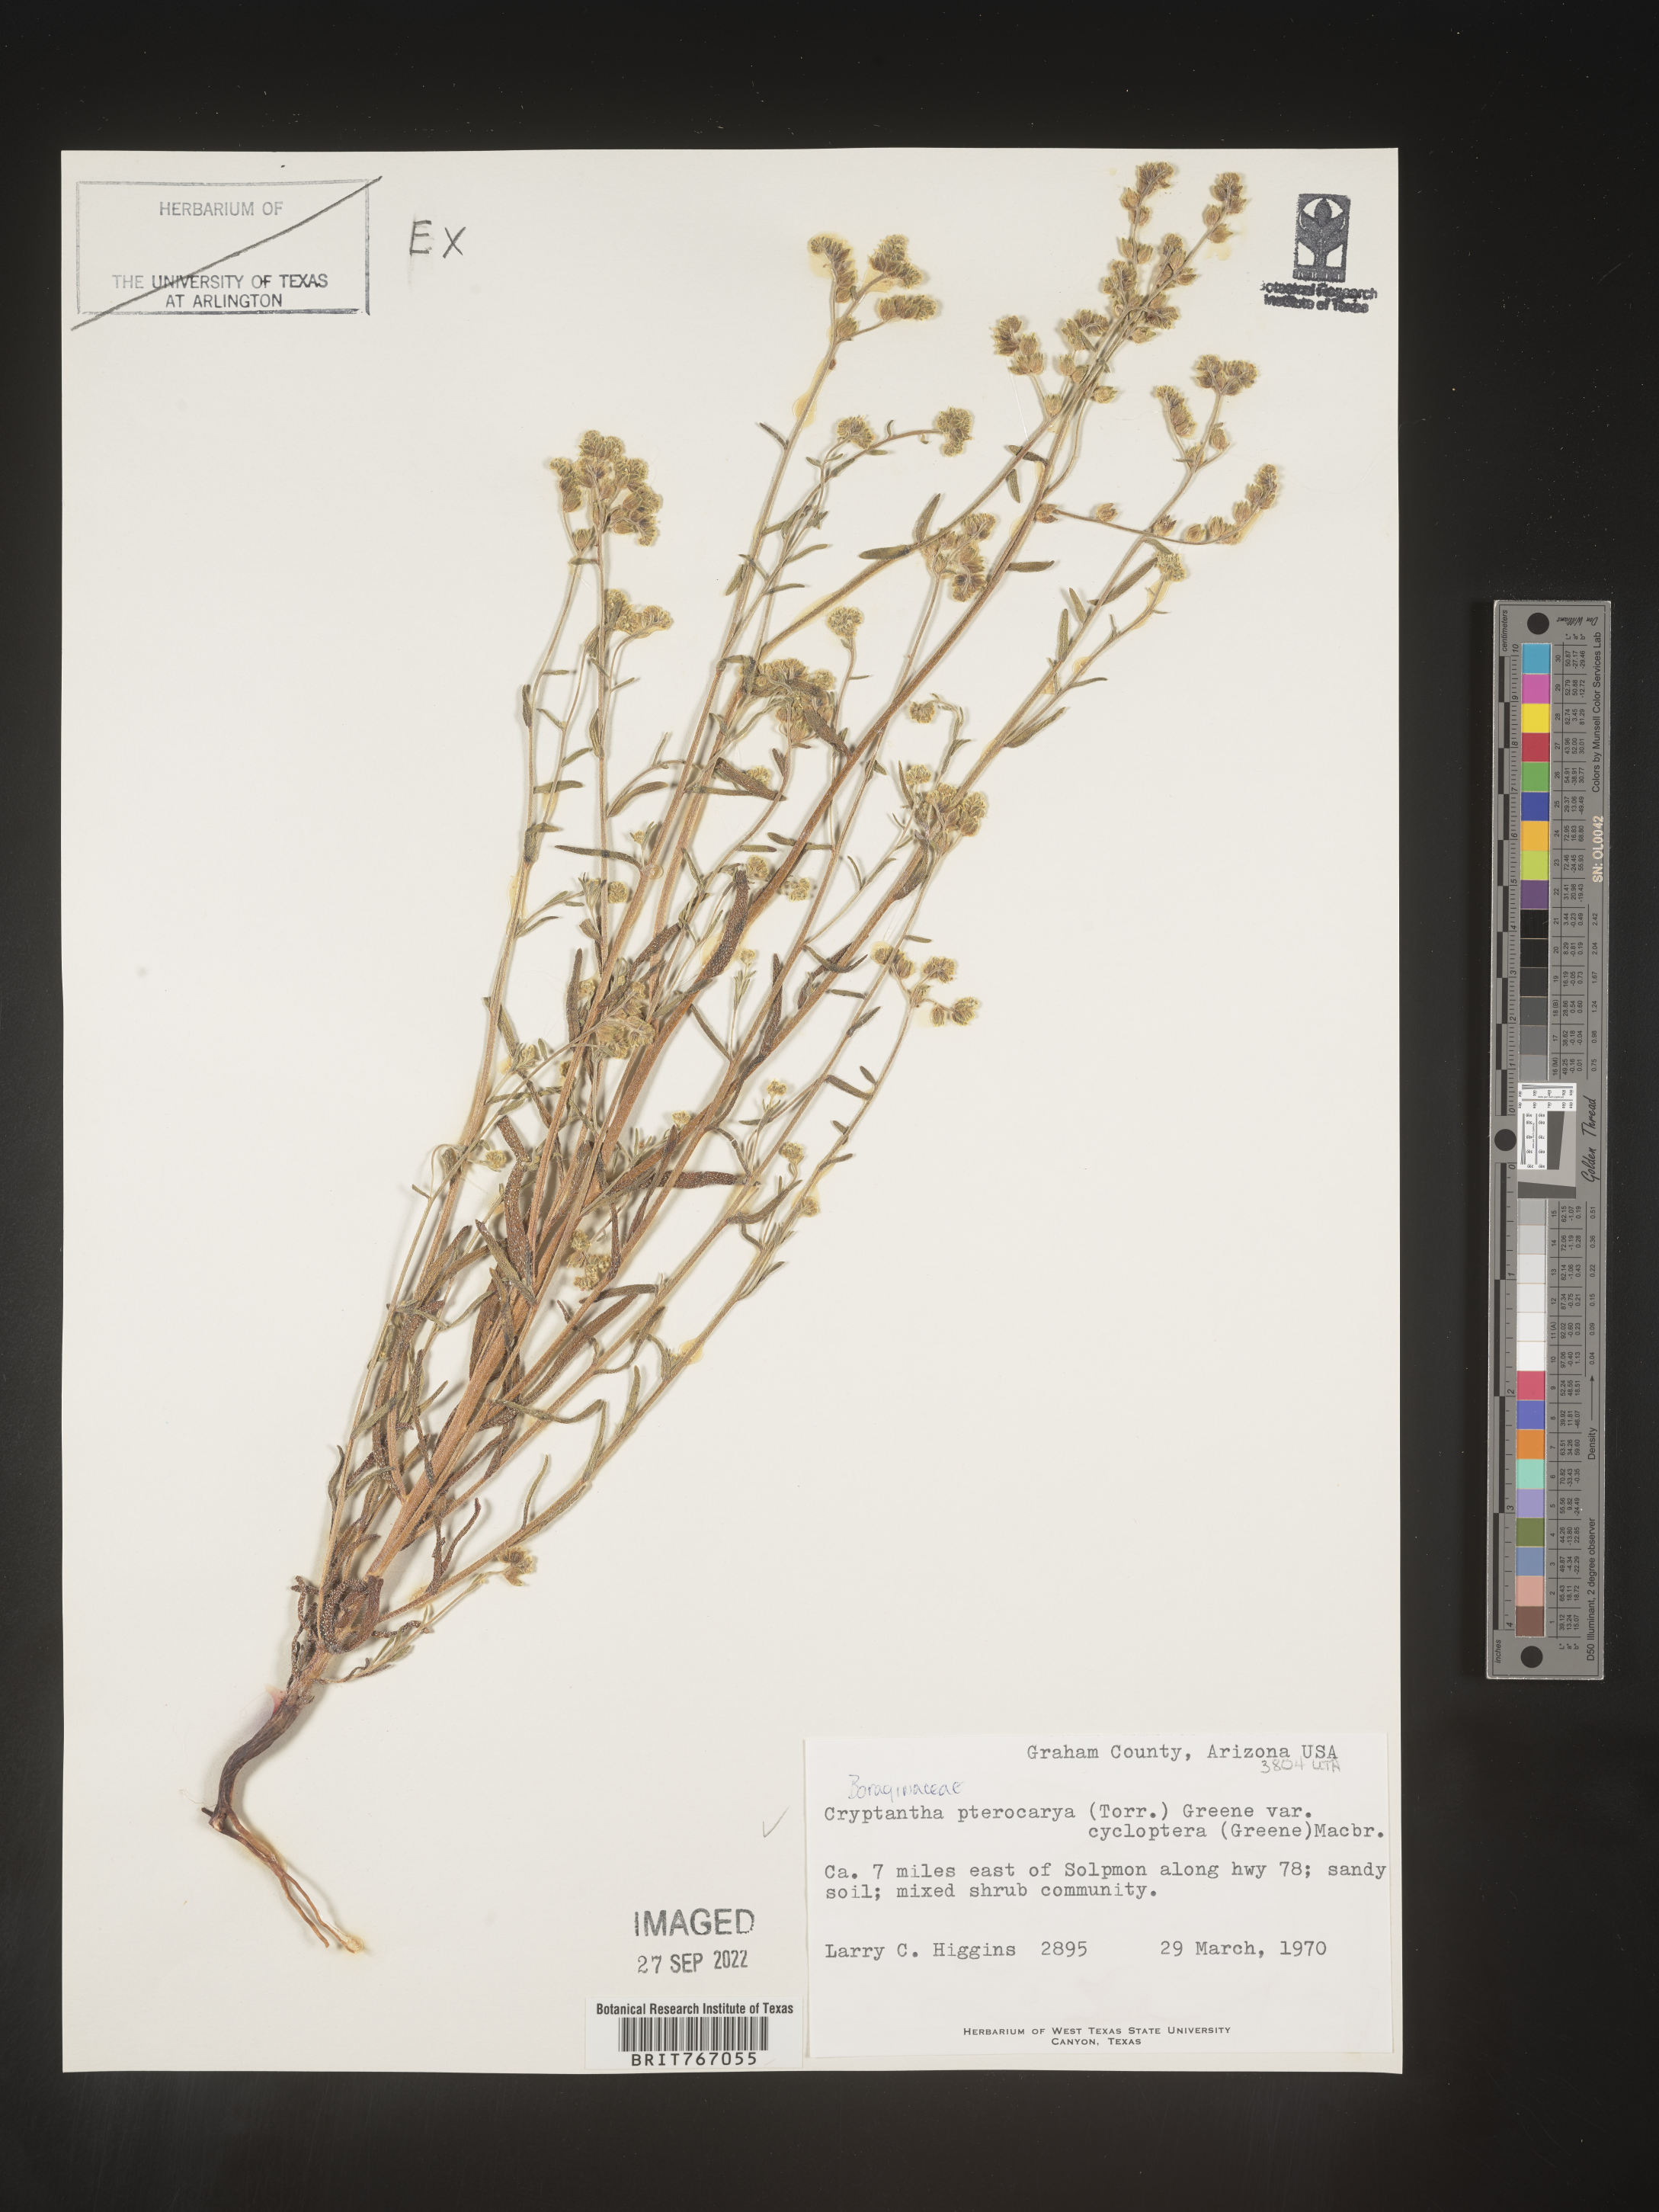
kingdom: Plantae
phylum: Tracheophyta
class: Magnoliopsida
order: Boraginales
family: Boraginaceae
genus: Cryptantha
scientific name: Cryptantha pterocarya
